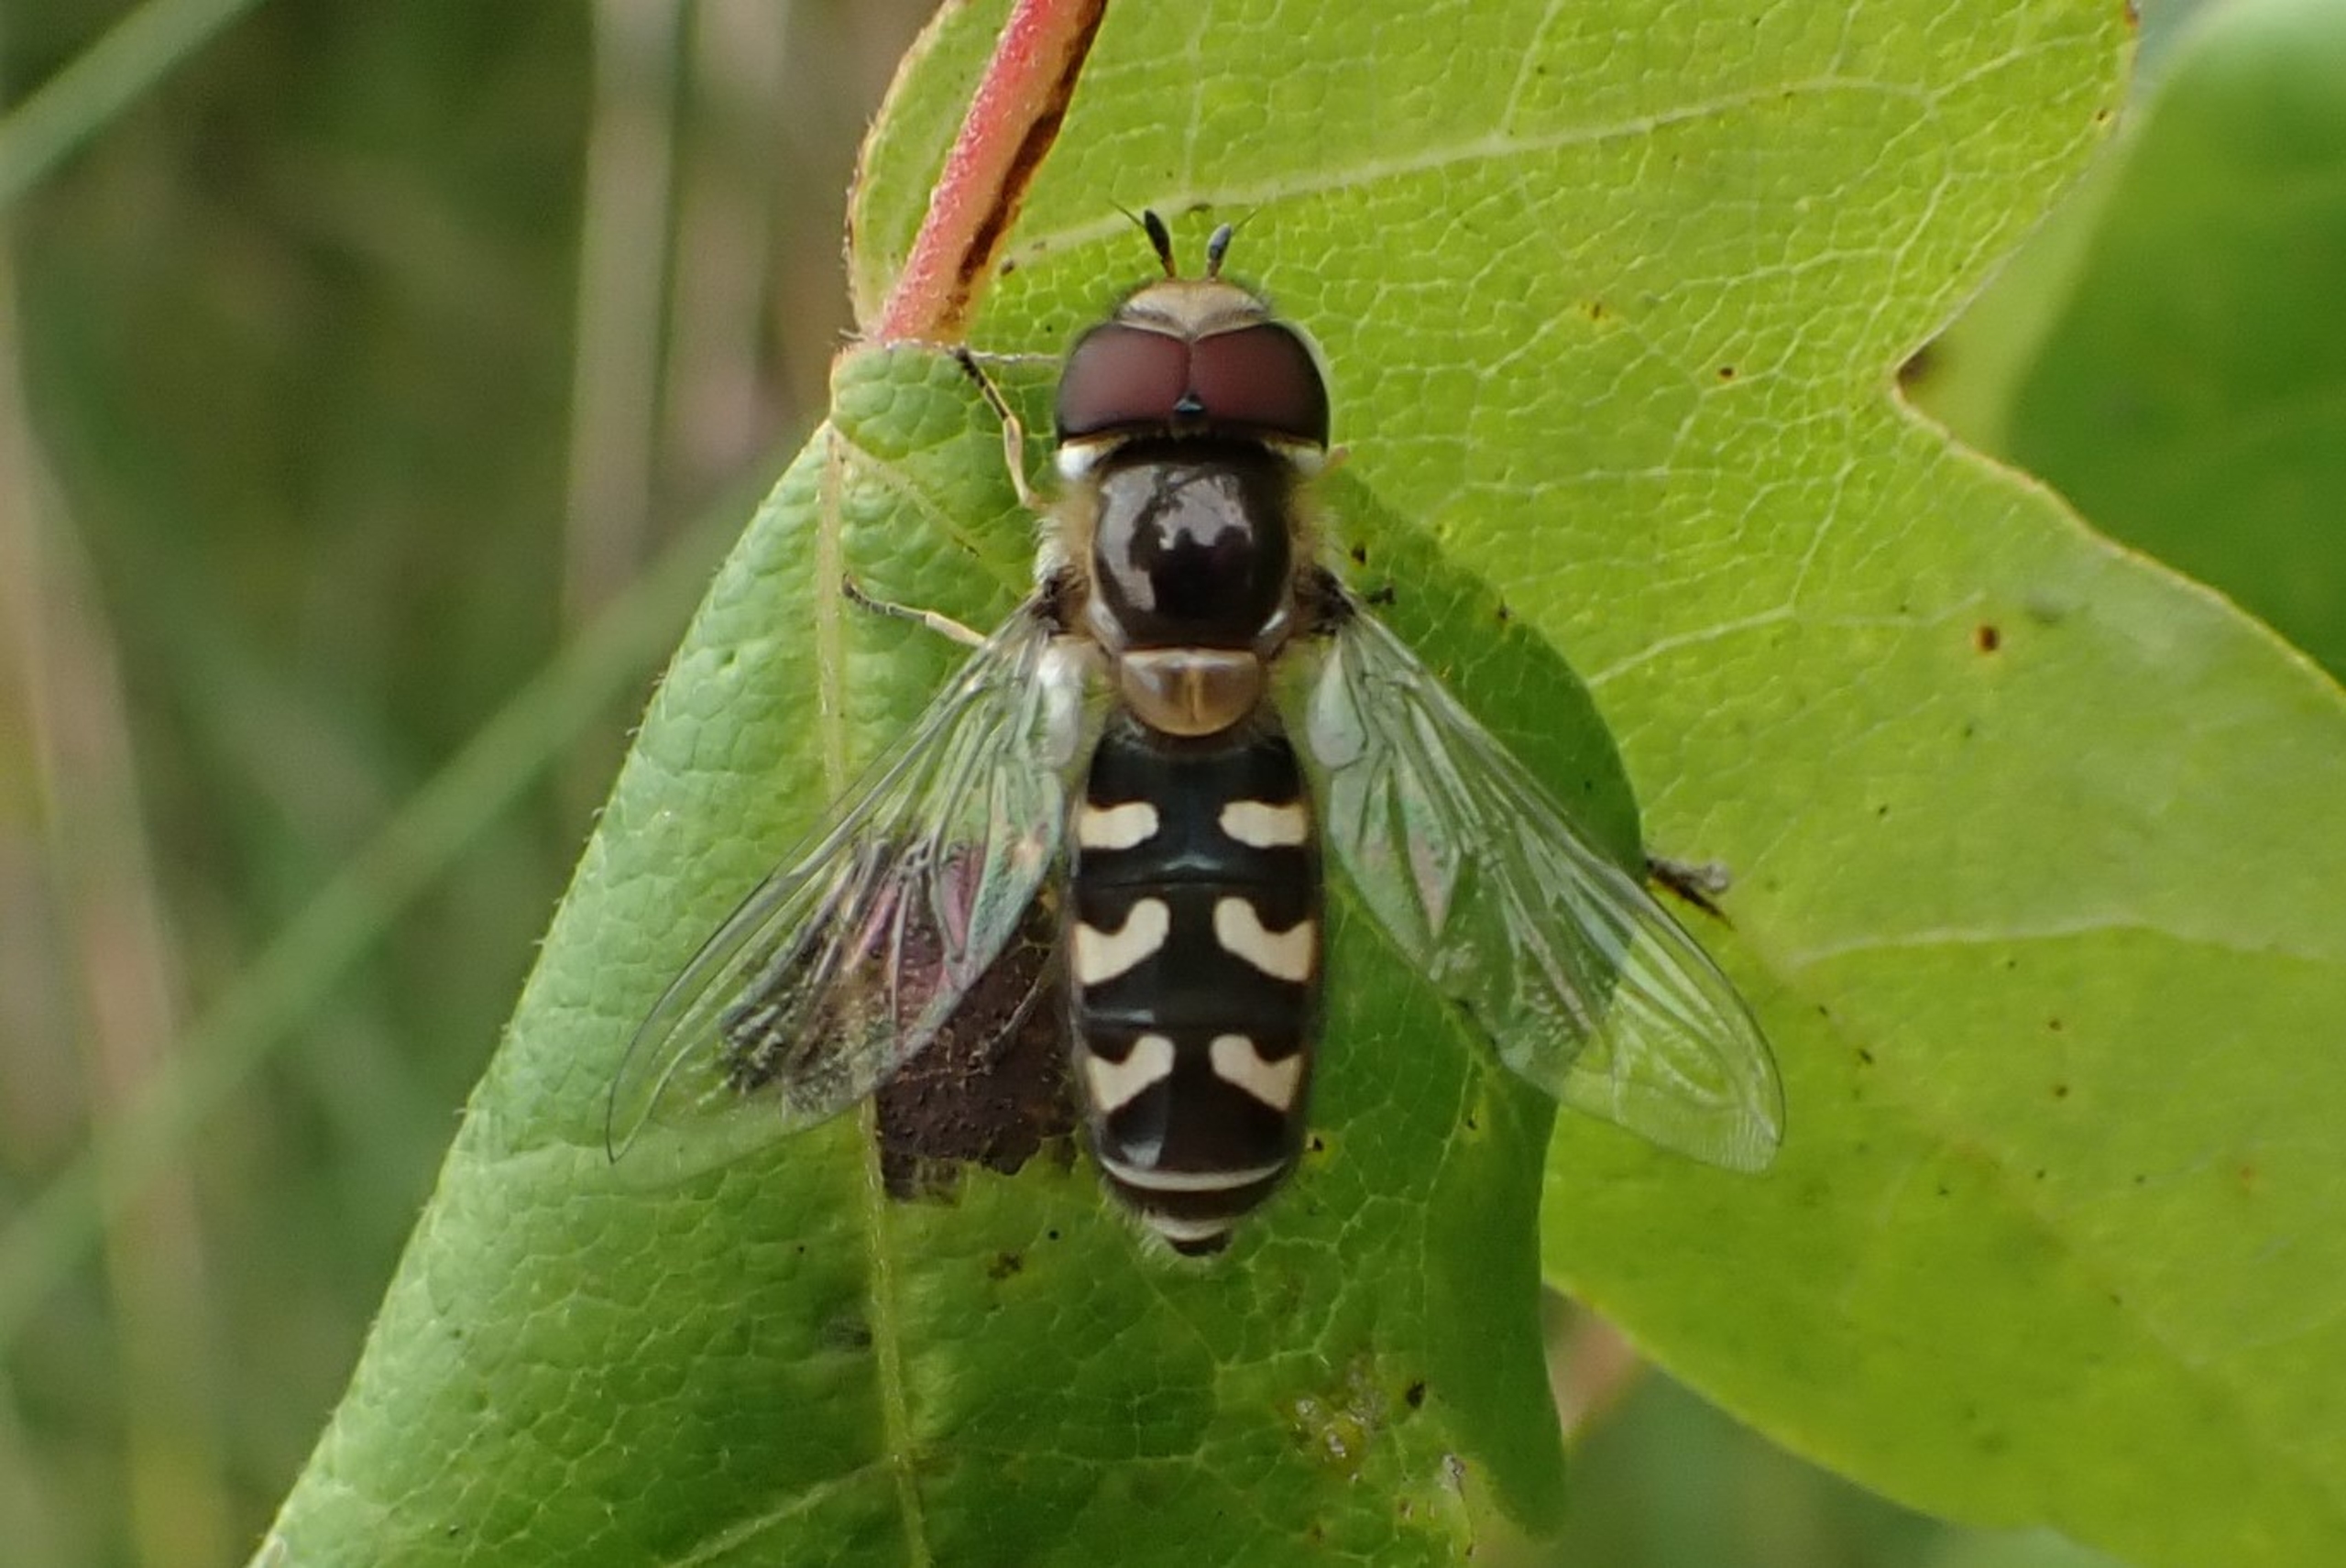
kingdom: Animalia
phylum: Arthropoda
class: Insecta
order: Diptera
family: Syrphidae
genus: Scaeva
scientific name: Scaeva pyrastri
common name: Hvidplettet agersvirreflue
